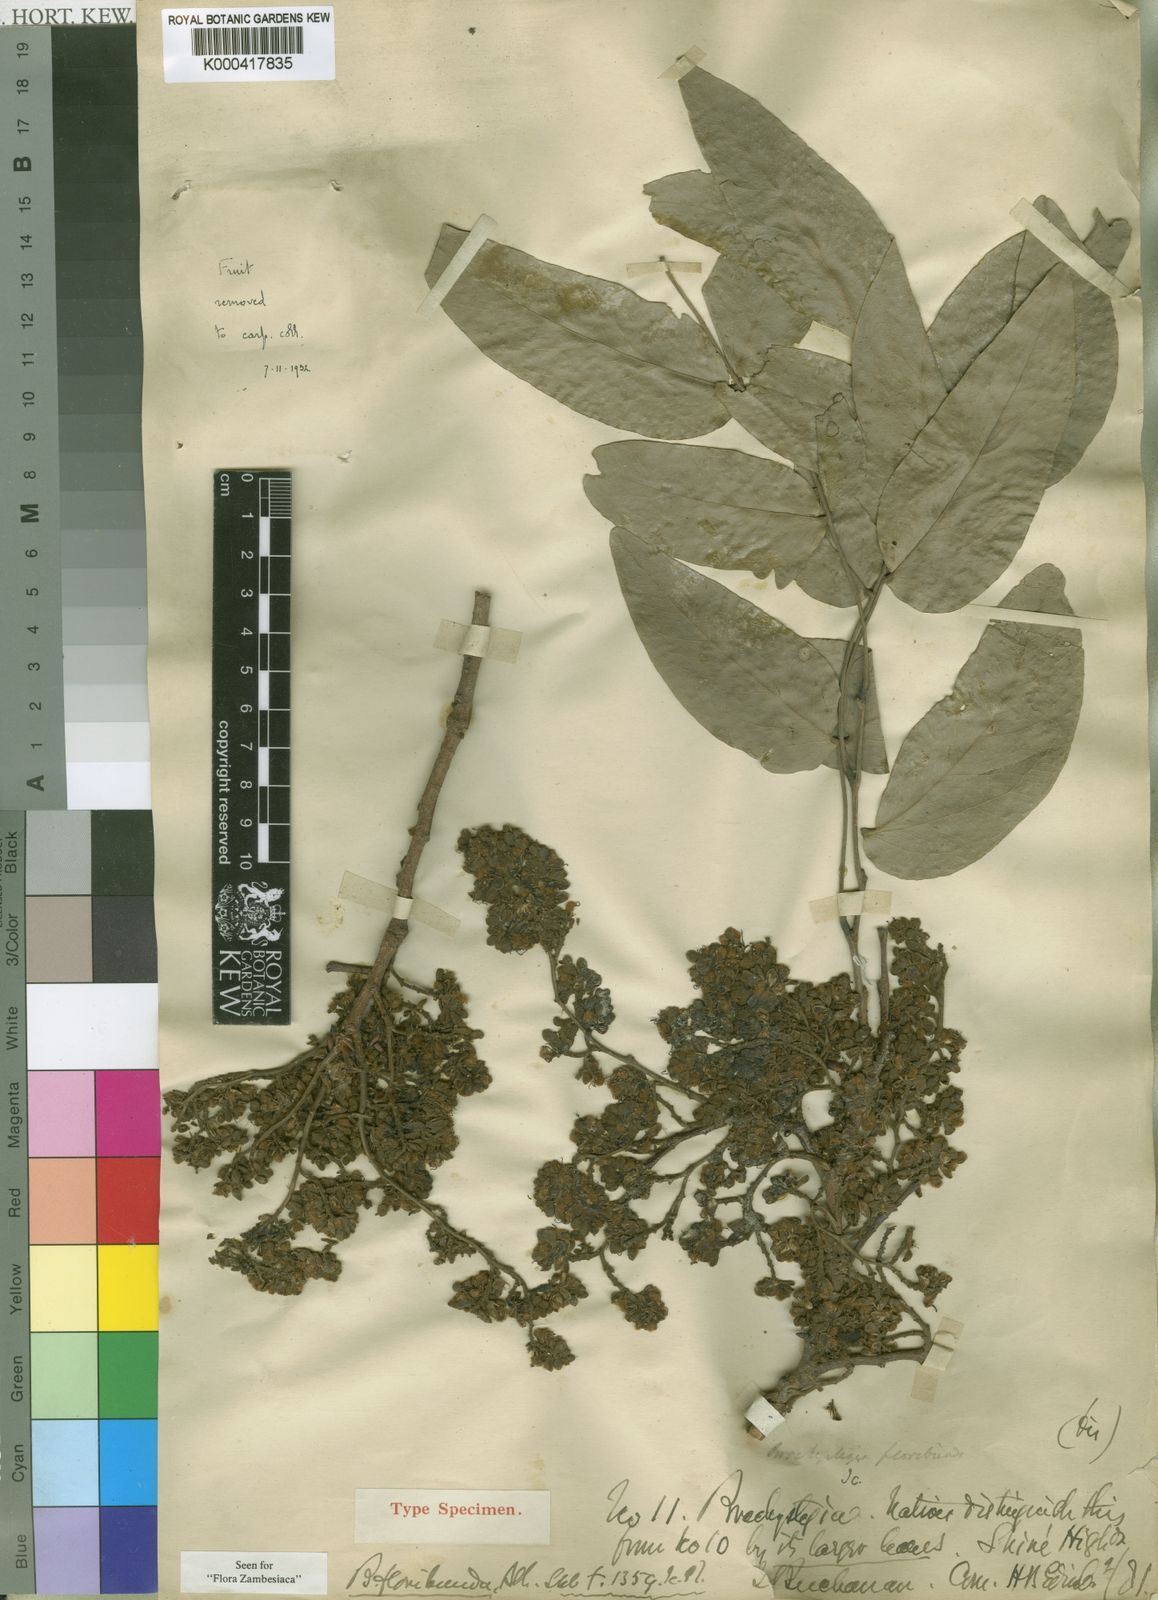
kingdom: Plantae
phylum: Tracheophyta
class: Magnoliopsida
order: Fabales
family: Fabaceae
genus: Brachystegia
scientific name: Brachystegia floribunda
